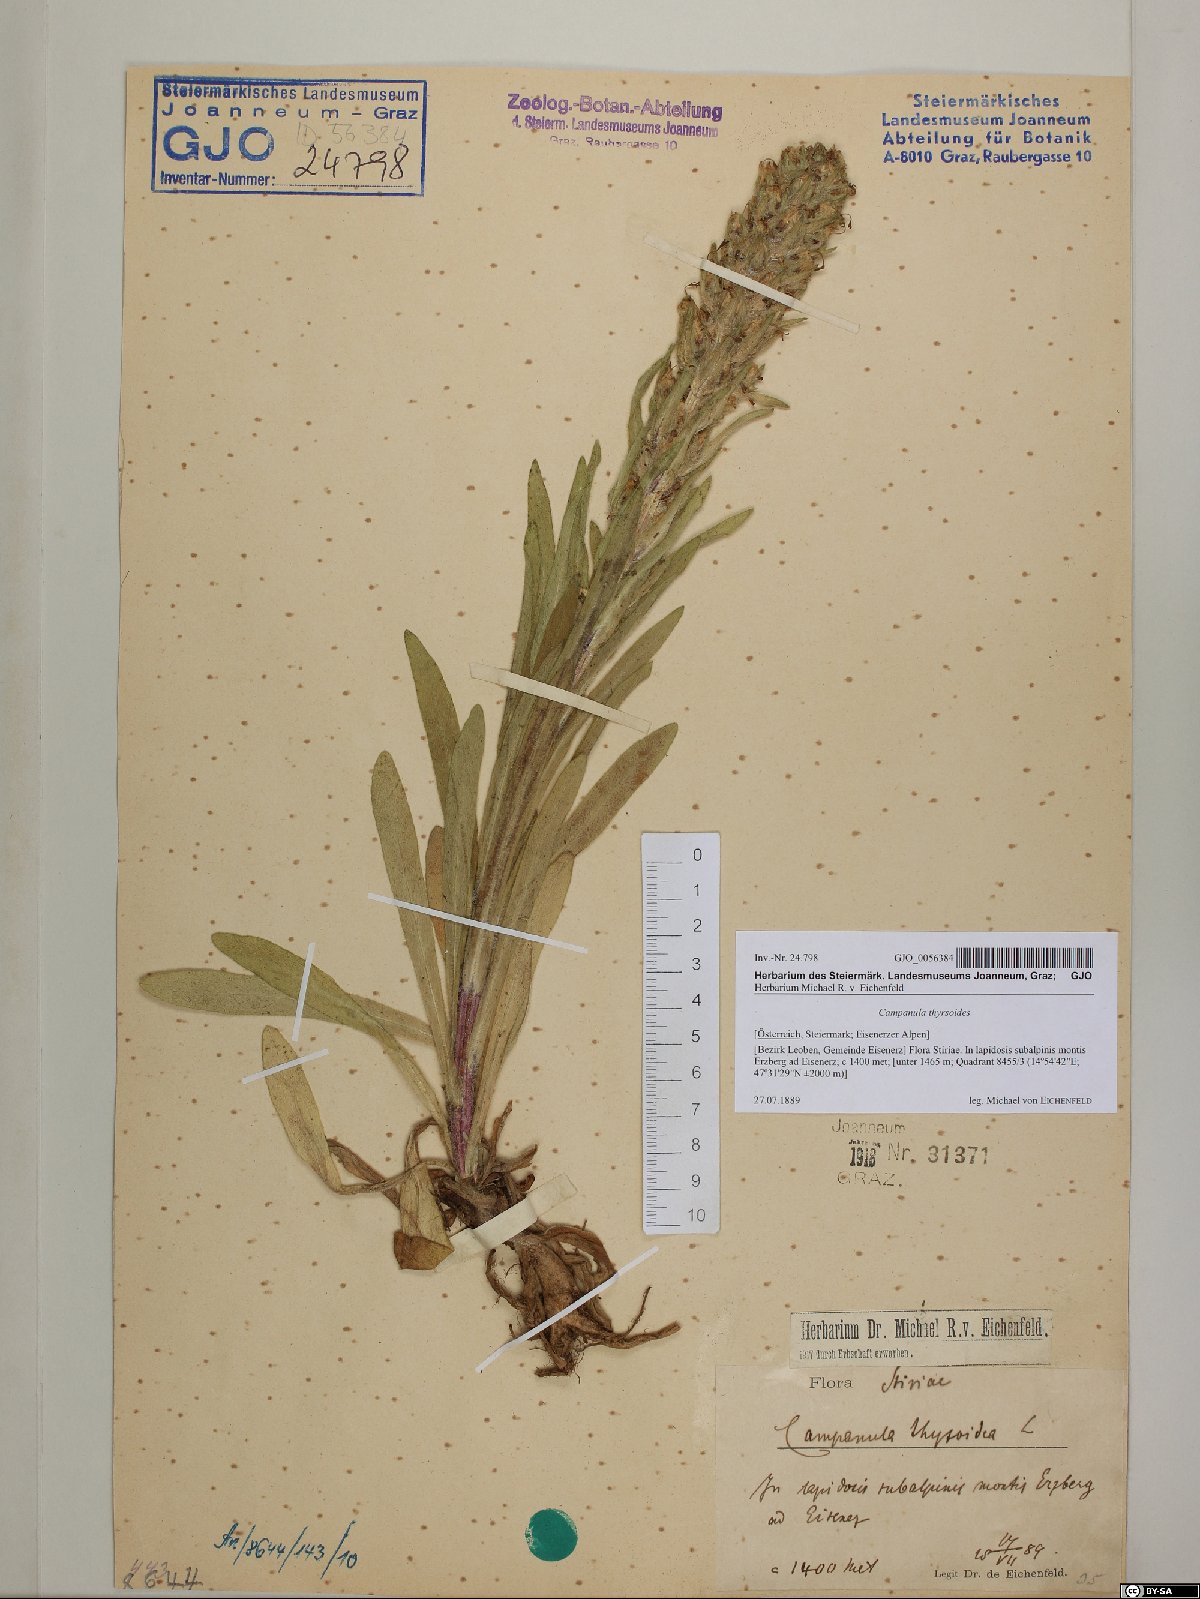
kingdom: Plantae
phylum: Tracheophyta
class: Magnoliopsida
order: Asterales
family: Campanulaceae
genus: Campanula
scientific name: Campanula thyrsoides
